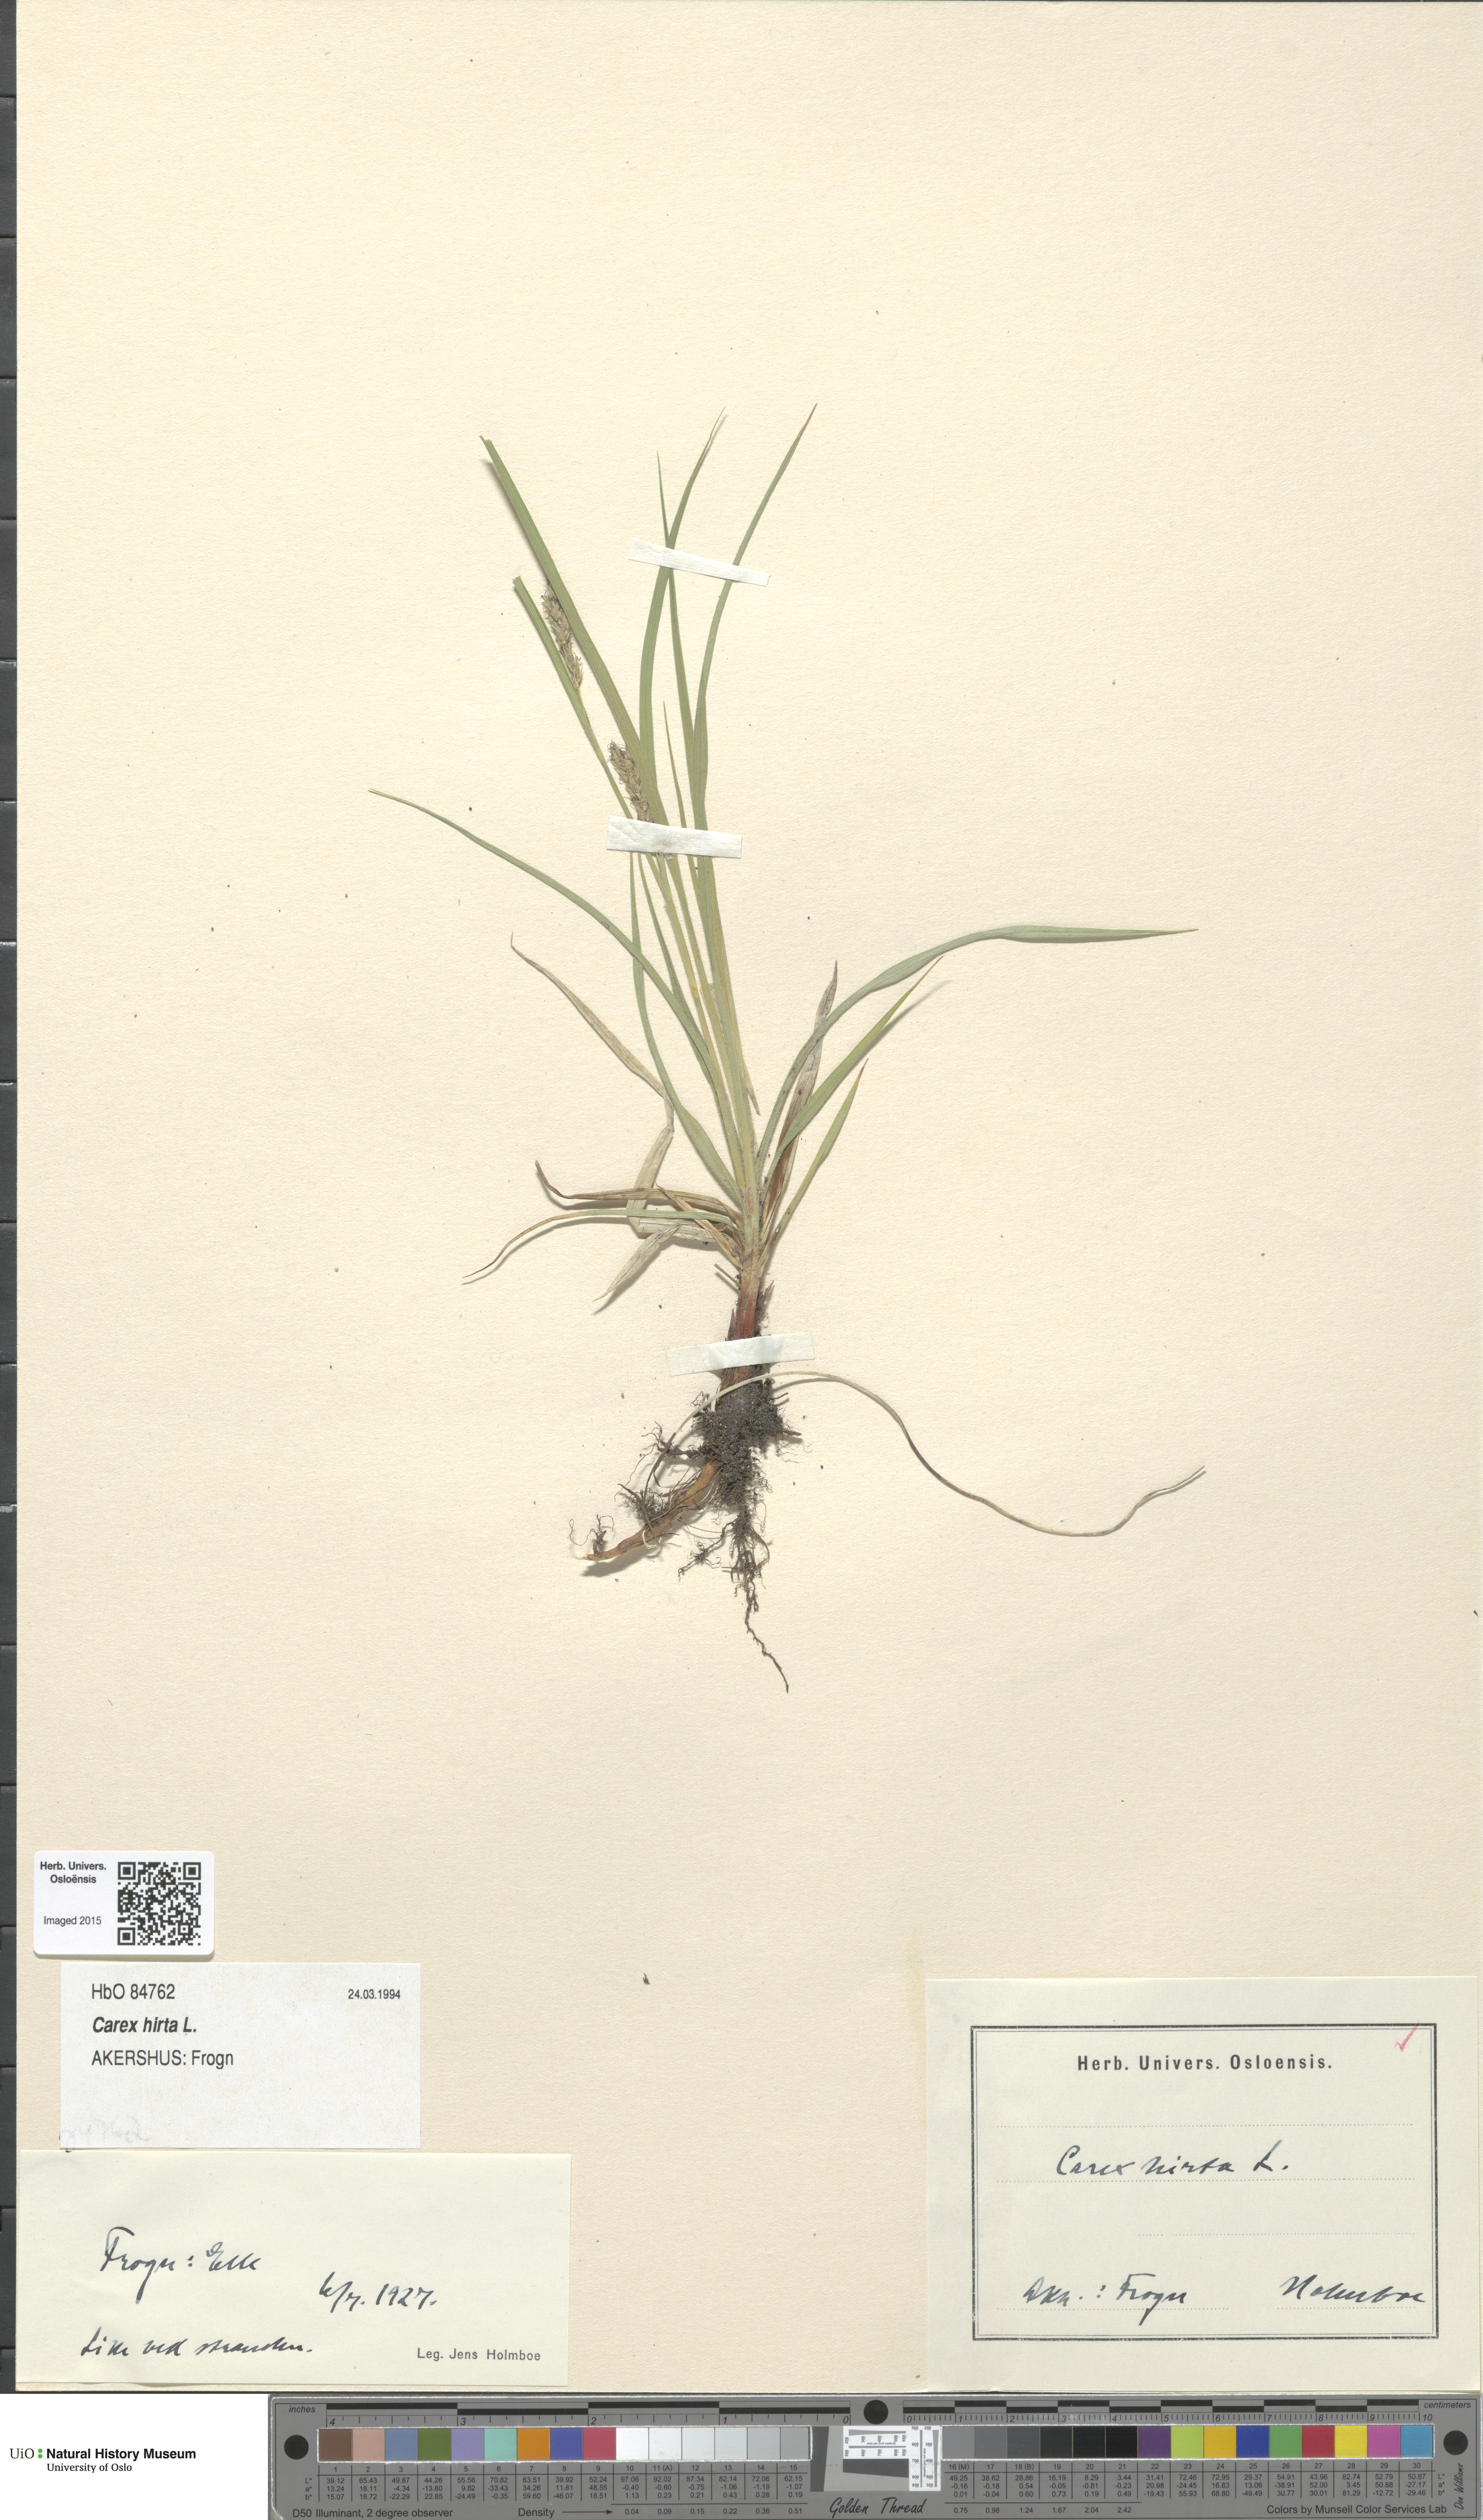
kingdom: Plantae
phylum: Tracheophyta
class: Liliopsida
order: Poales
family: Cyperaceae
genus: Carex
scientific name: Carex hirta
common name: Hairy sedge
